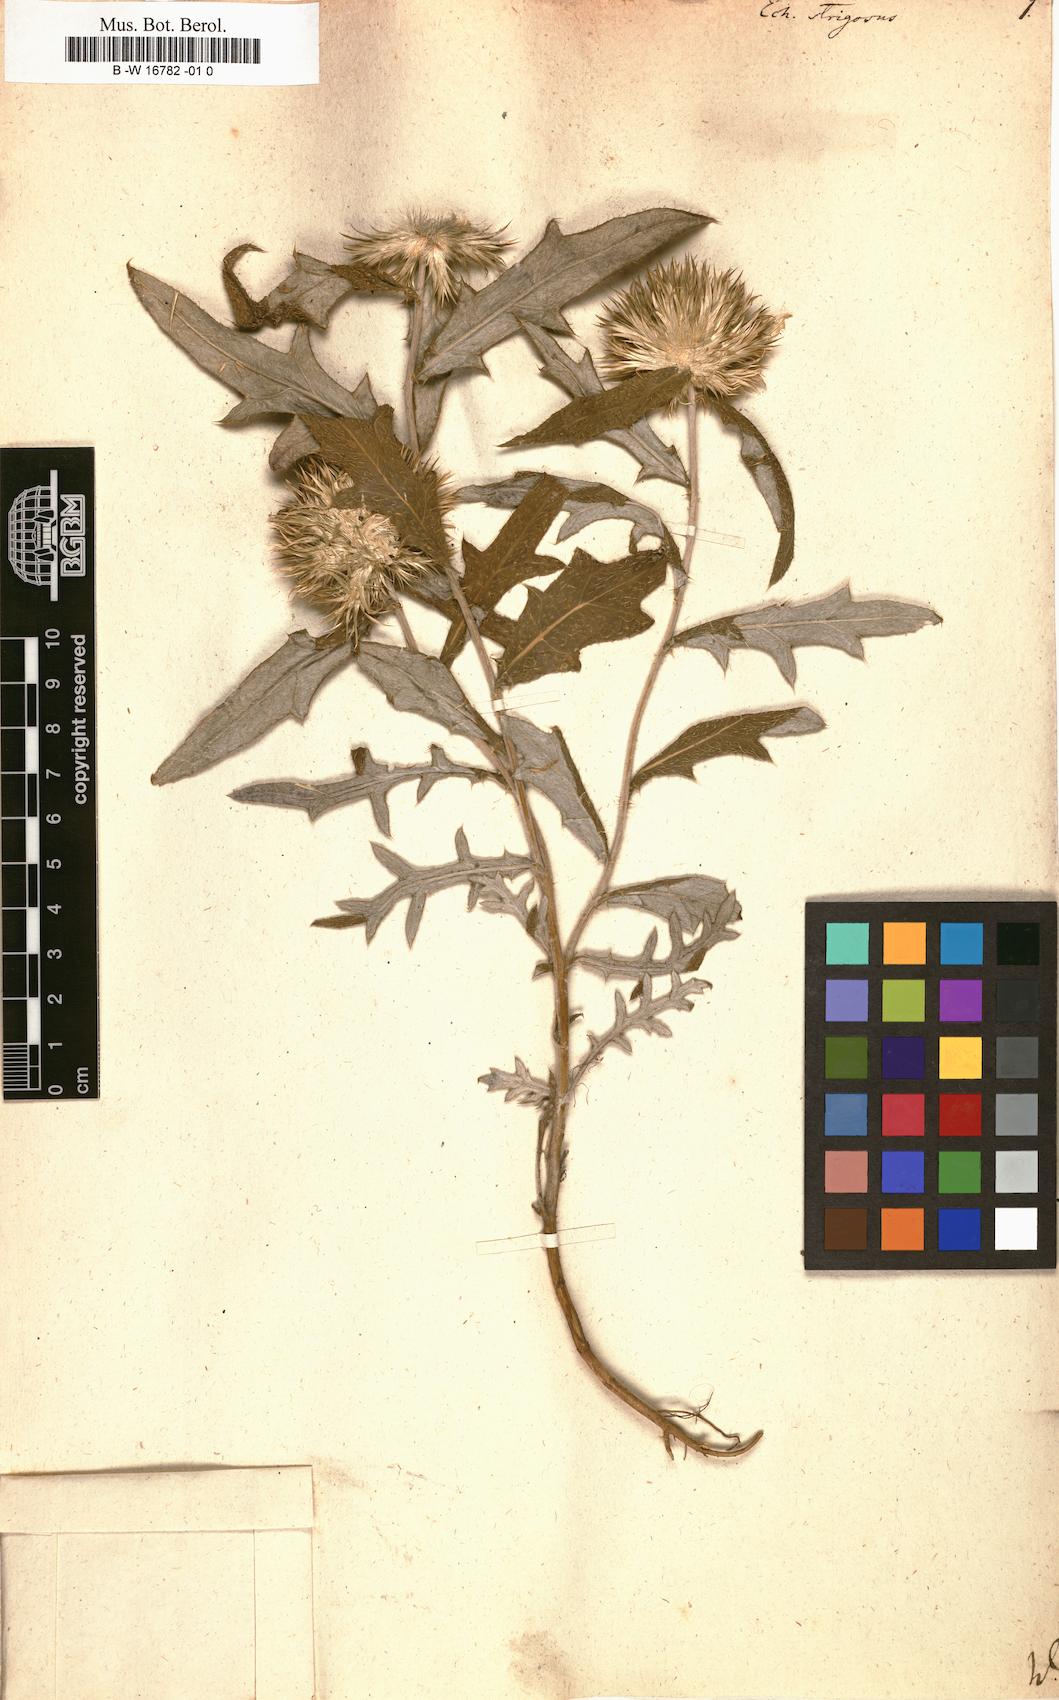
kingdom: Plantae
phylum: Tracheophyta
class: Magnoliopsida
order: Asterales
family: Asteraceae
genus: Echinops
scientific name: Echinops strigosus
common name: Rough-leaf globe thistle
